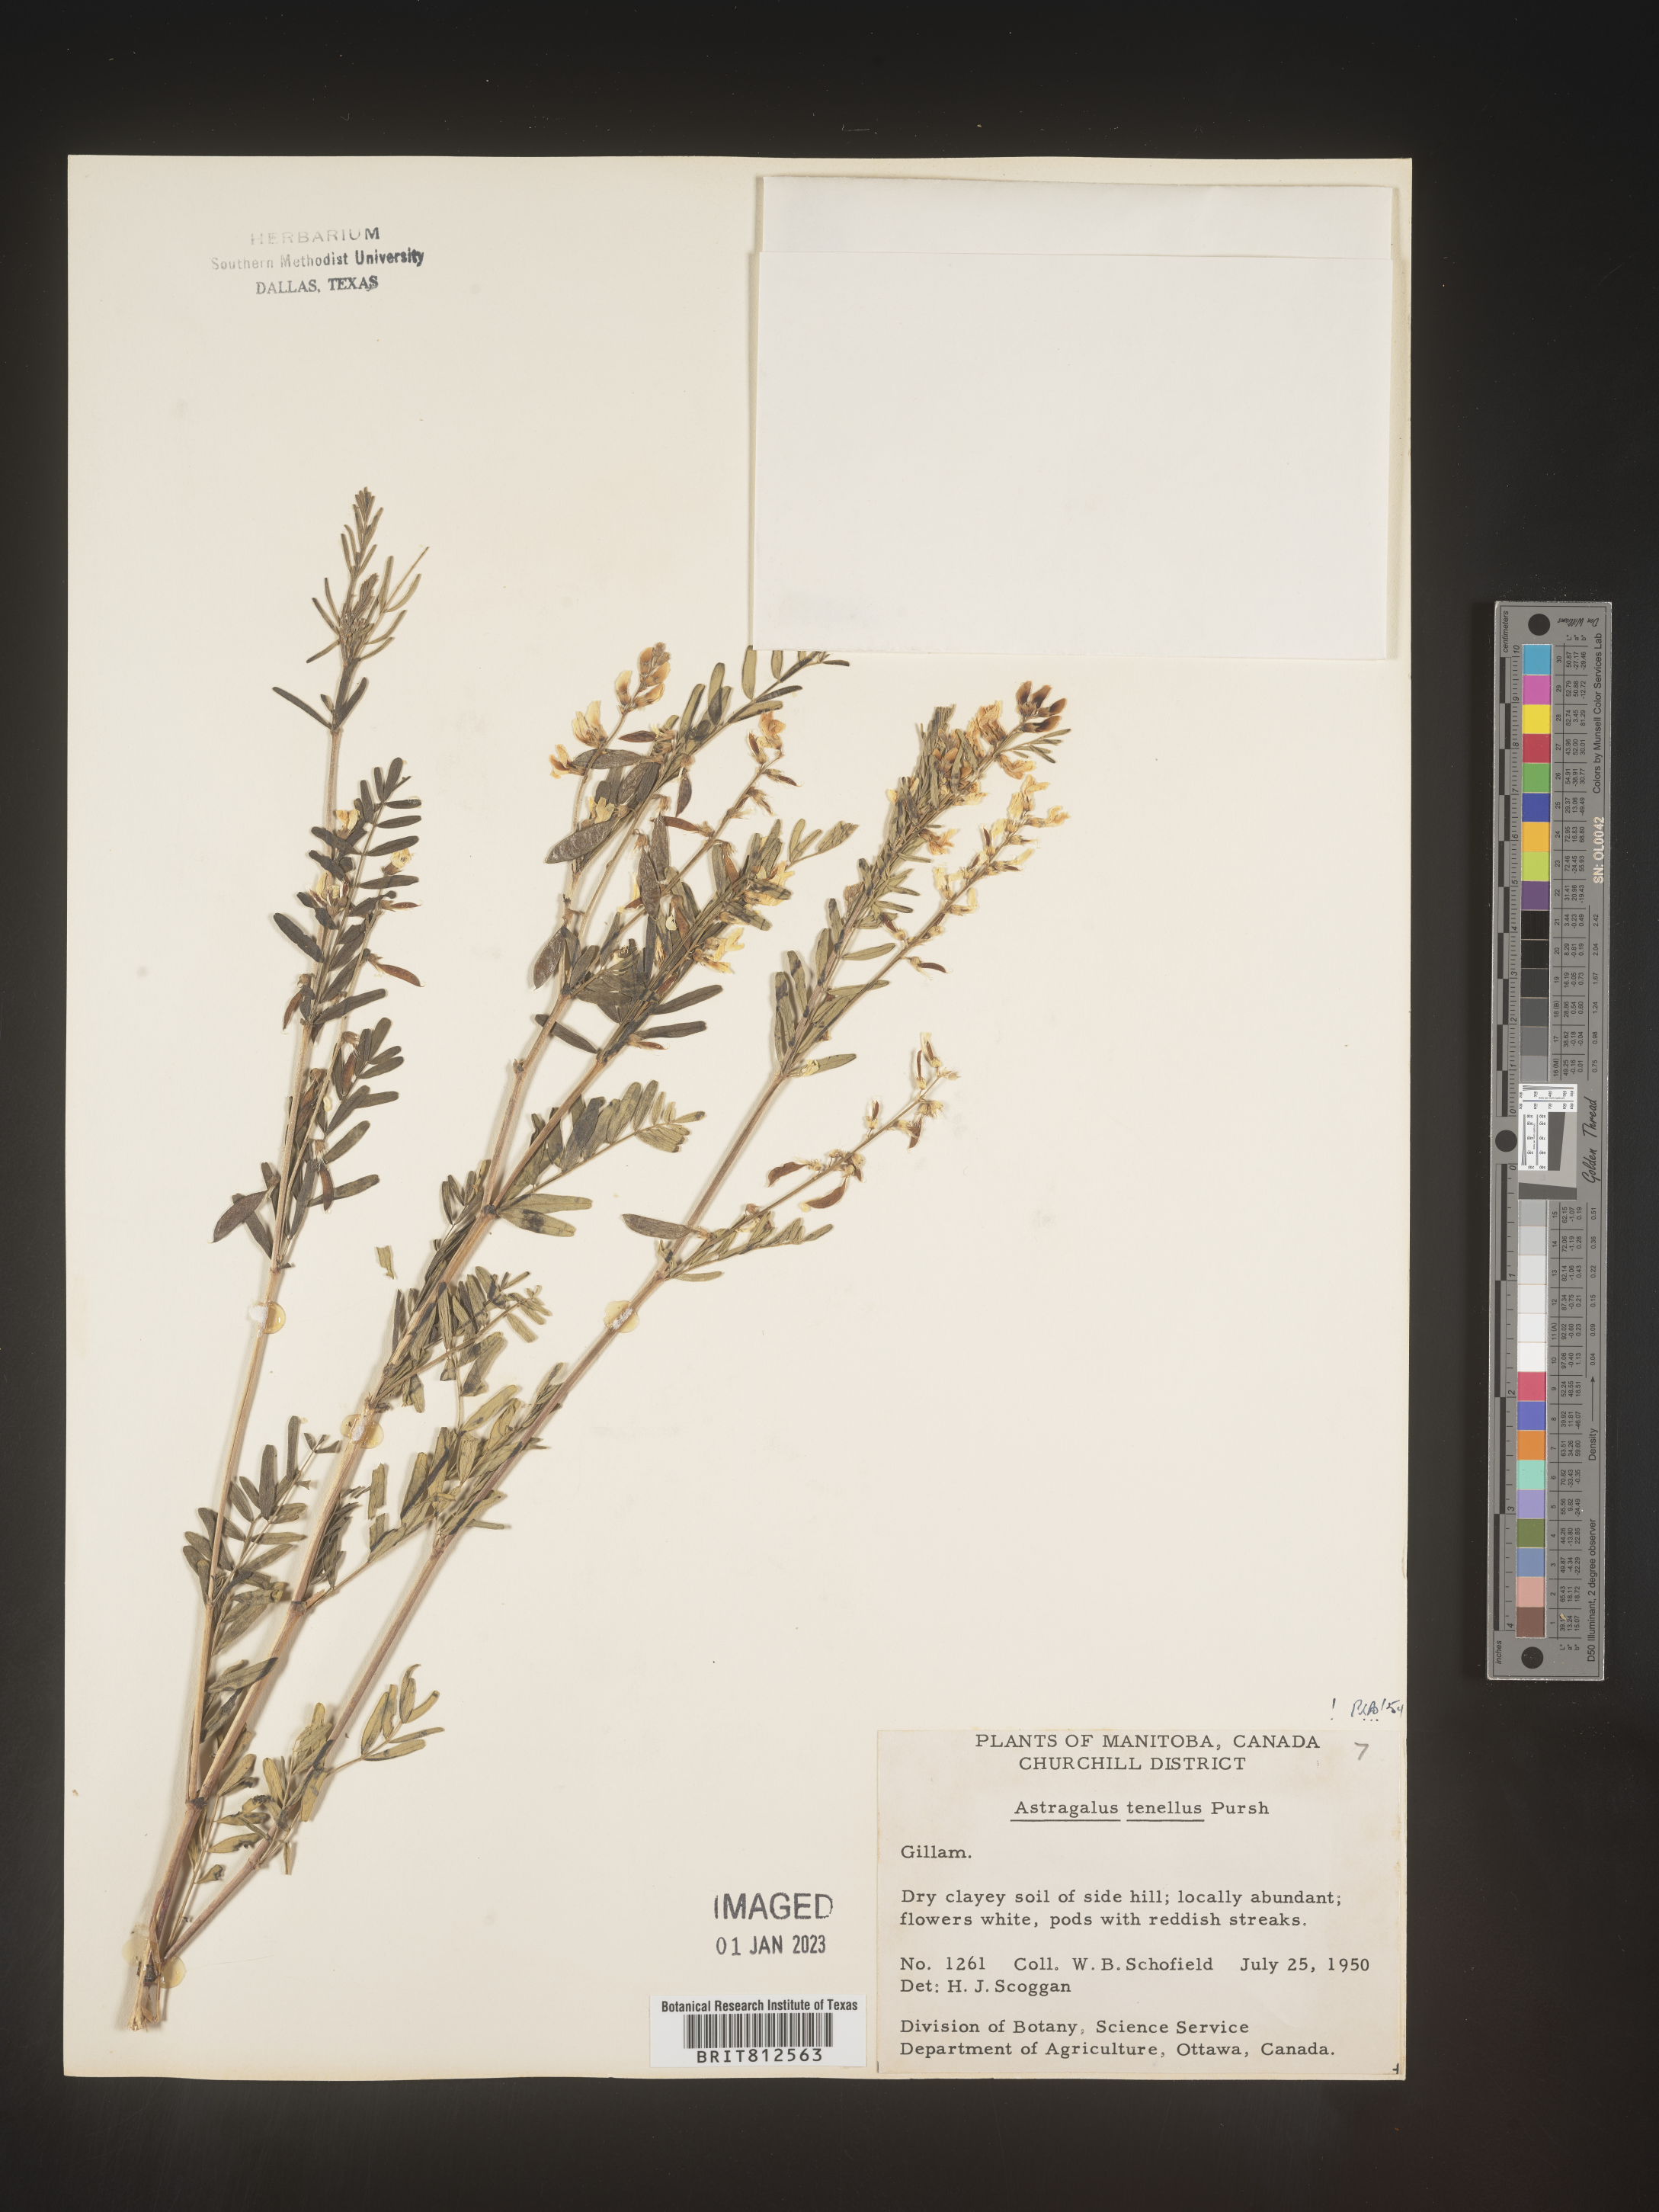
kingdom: Plantae
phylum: Tracheophyta
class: Magnoliopsida
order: Fabales
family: Fabaceae
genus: Astragalus
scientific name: Astragalus
